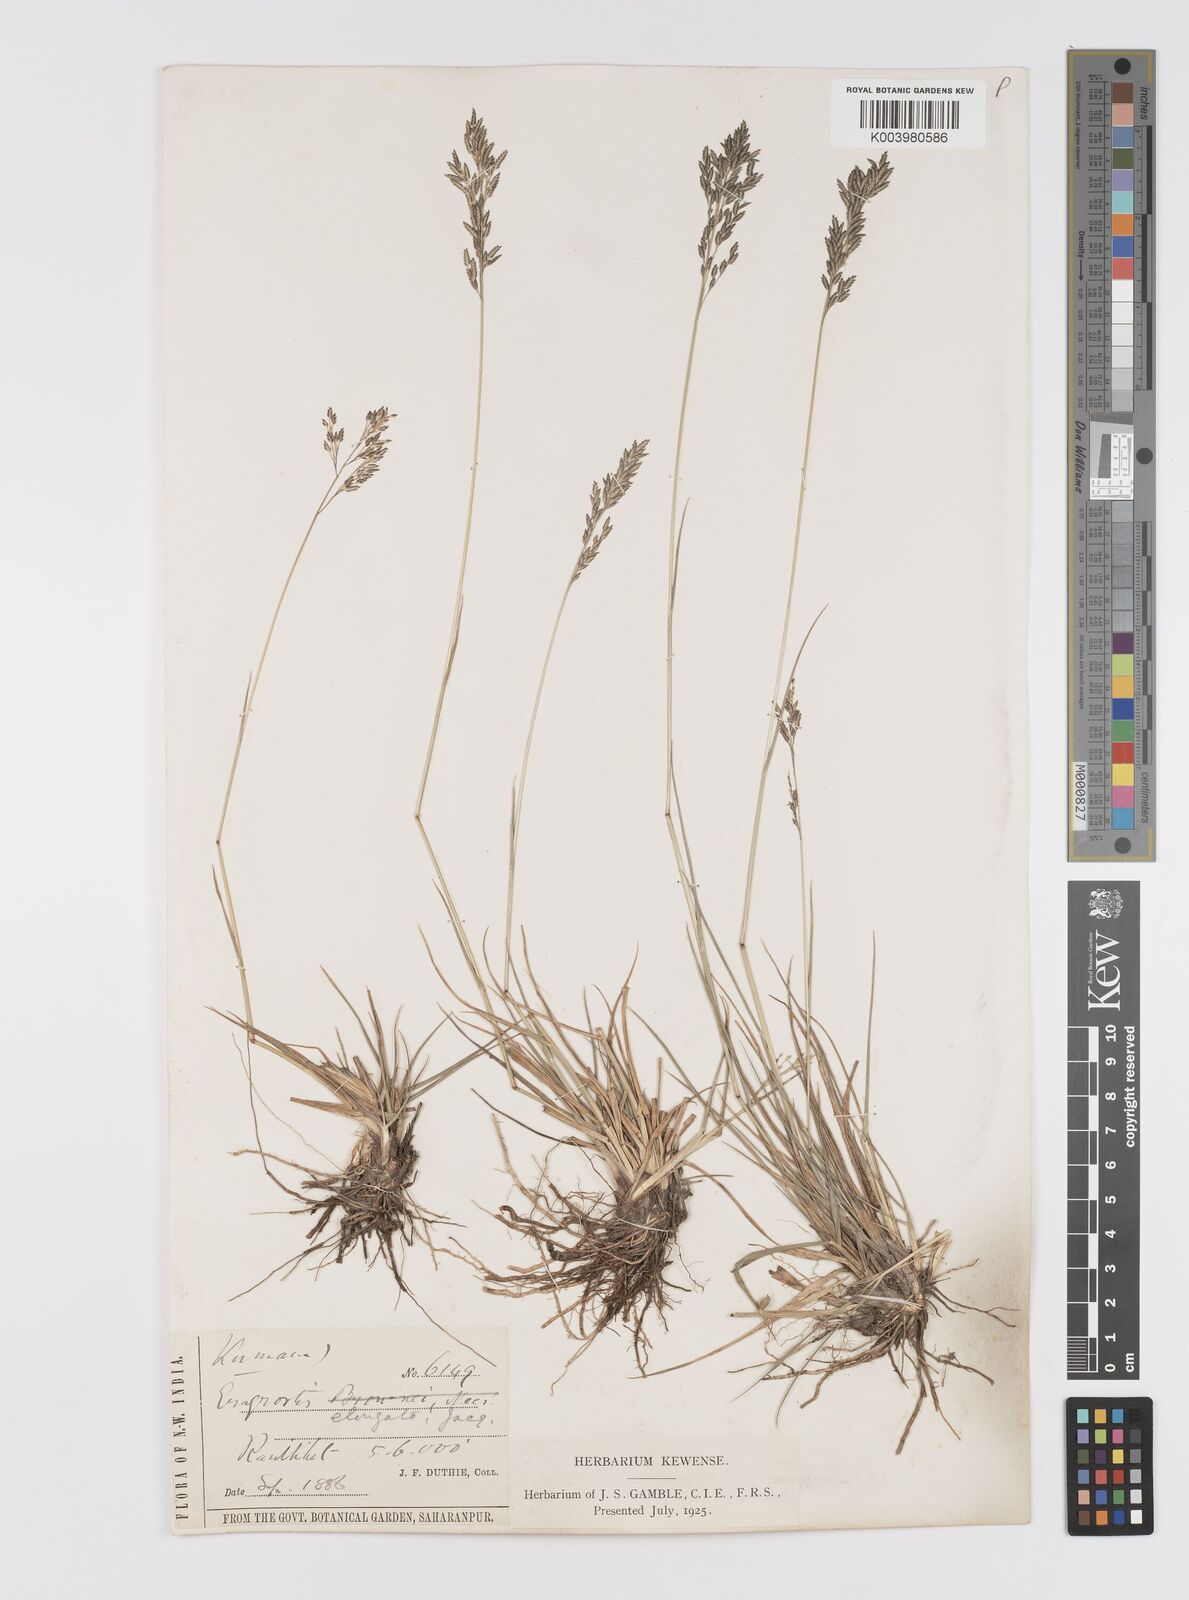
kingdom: Plantae
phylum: Tracheophyta
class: Liliopsida
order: Poales
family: Poaceae
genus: Eragrostis
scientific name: Eragrostis atrovirens
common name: Thalia lovegrass
